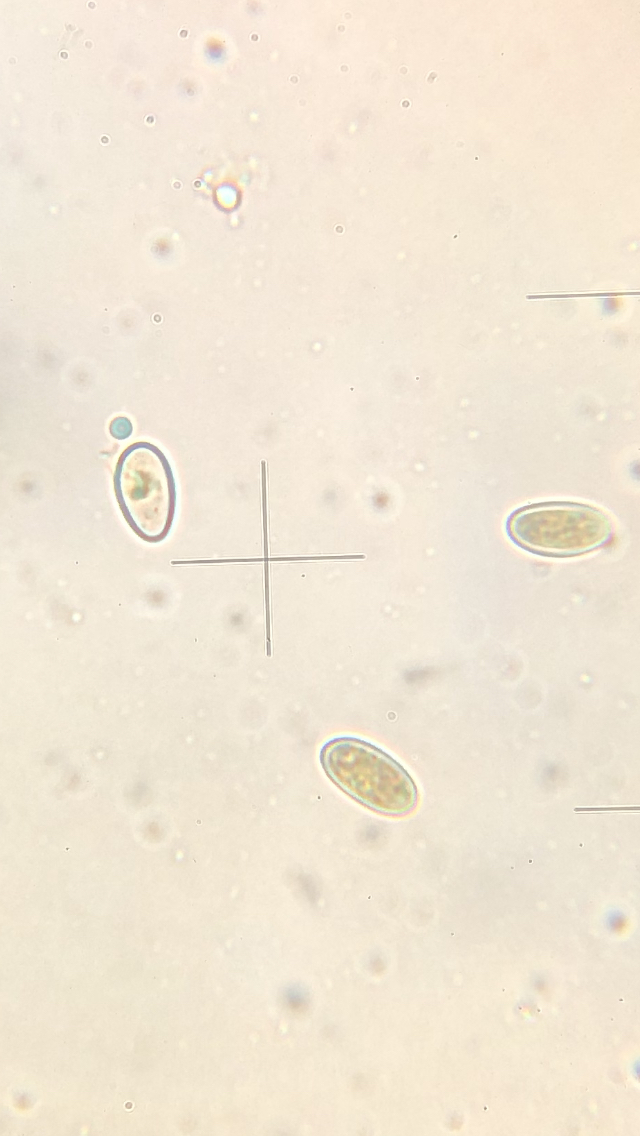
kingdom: Fungi
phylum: Ascomycota
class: Leotiomycetes
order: Helotiales
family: Lachnaceae
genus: Perrotia
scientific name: Perrotia gallica
